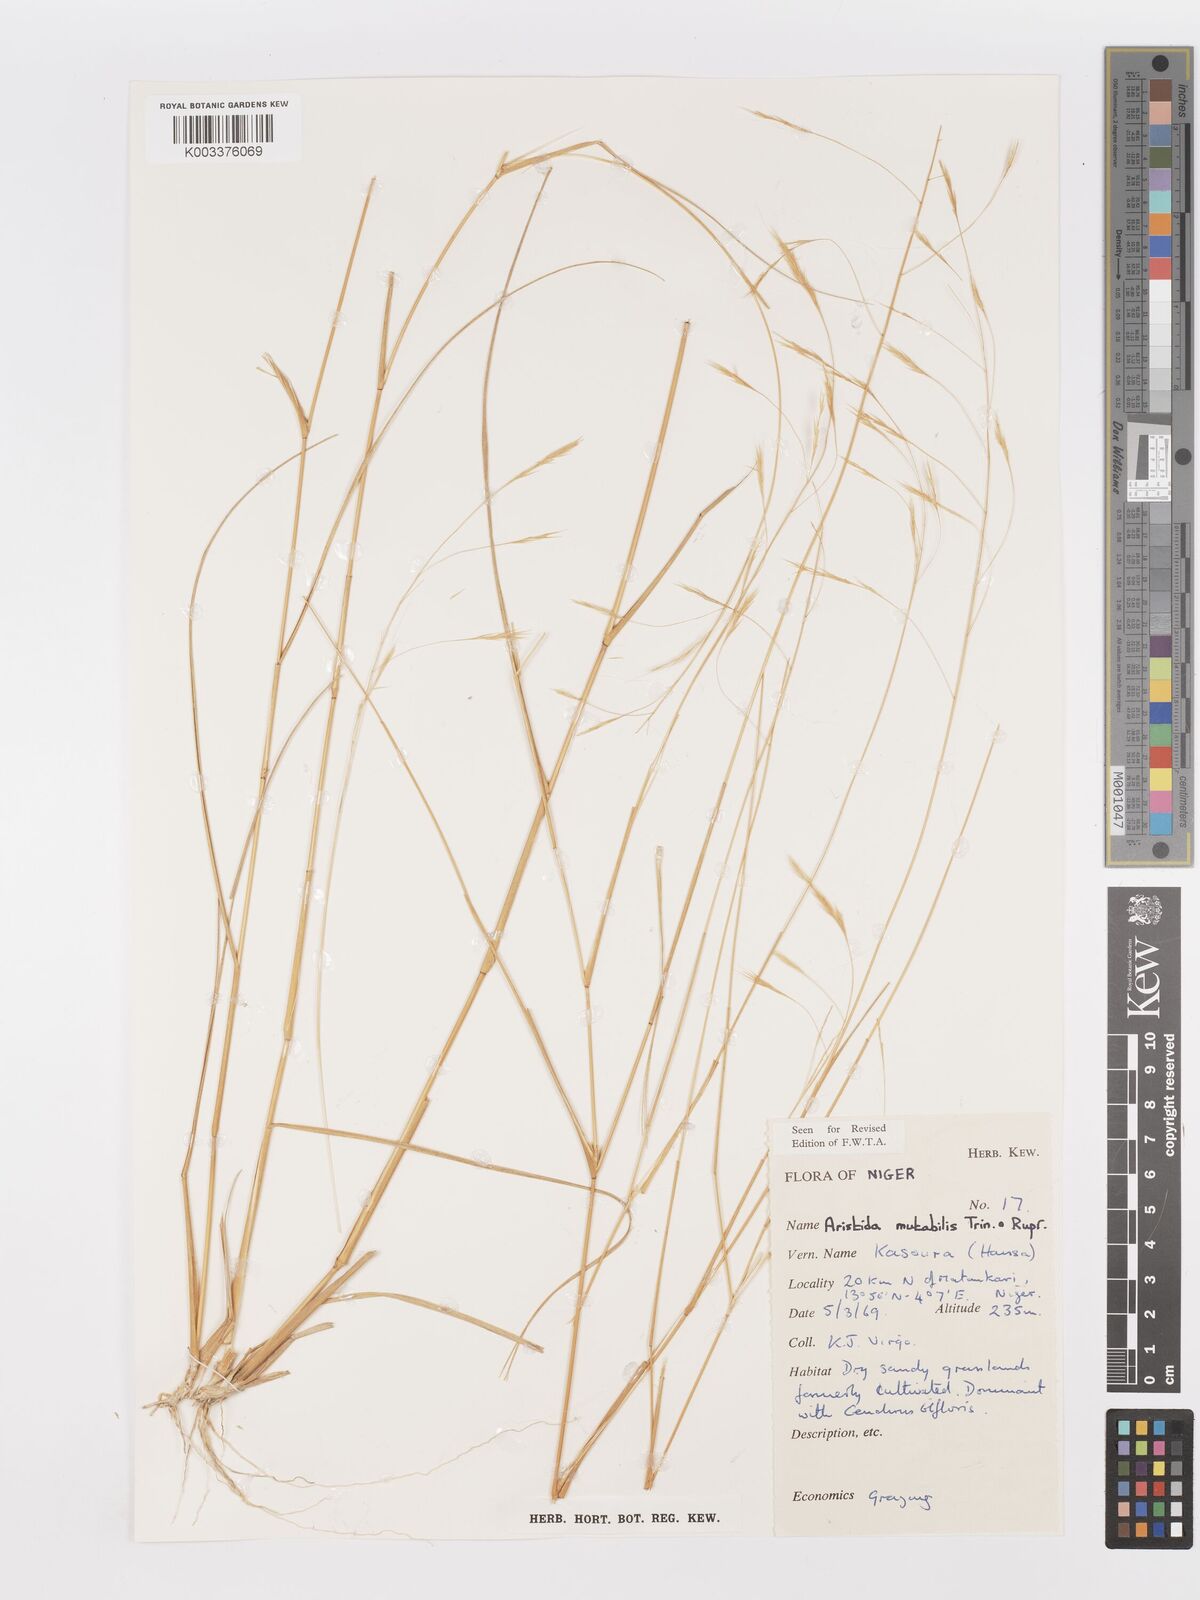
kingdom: Plantae
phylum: Tracheophyta
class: Liliopsida
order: Poales
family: Poaceae
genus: Aristida
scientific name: Aristida mutabilis
